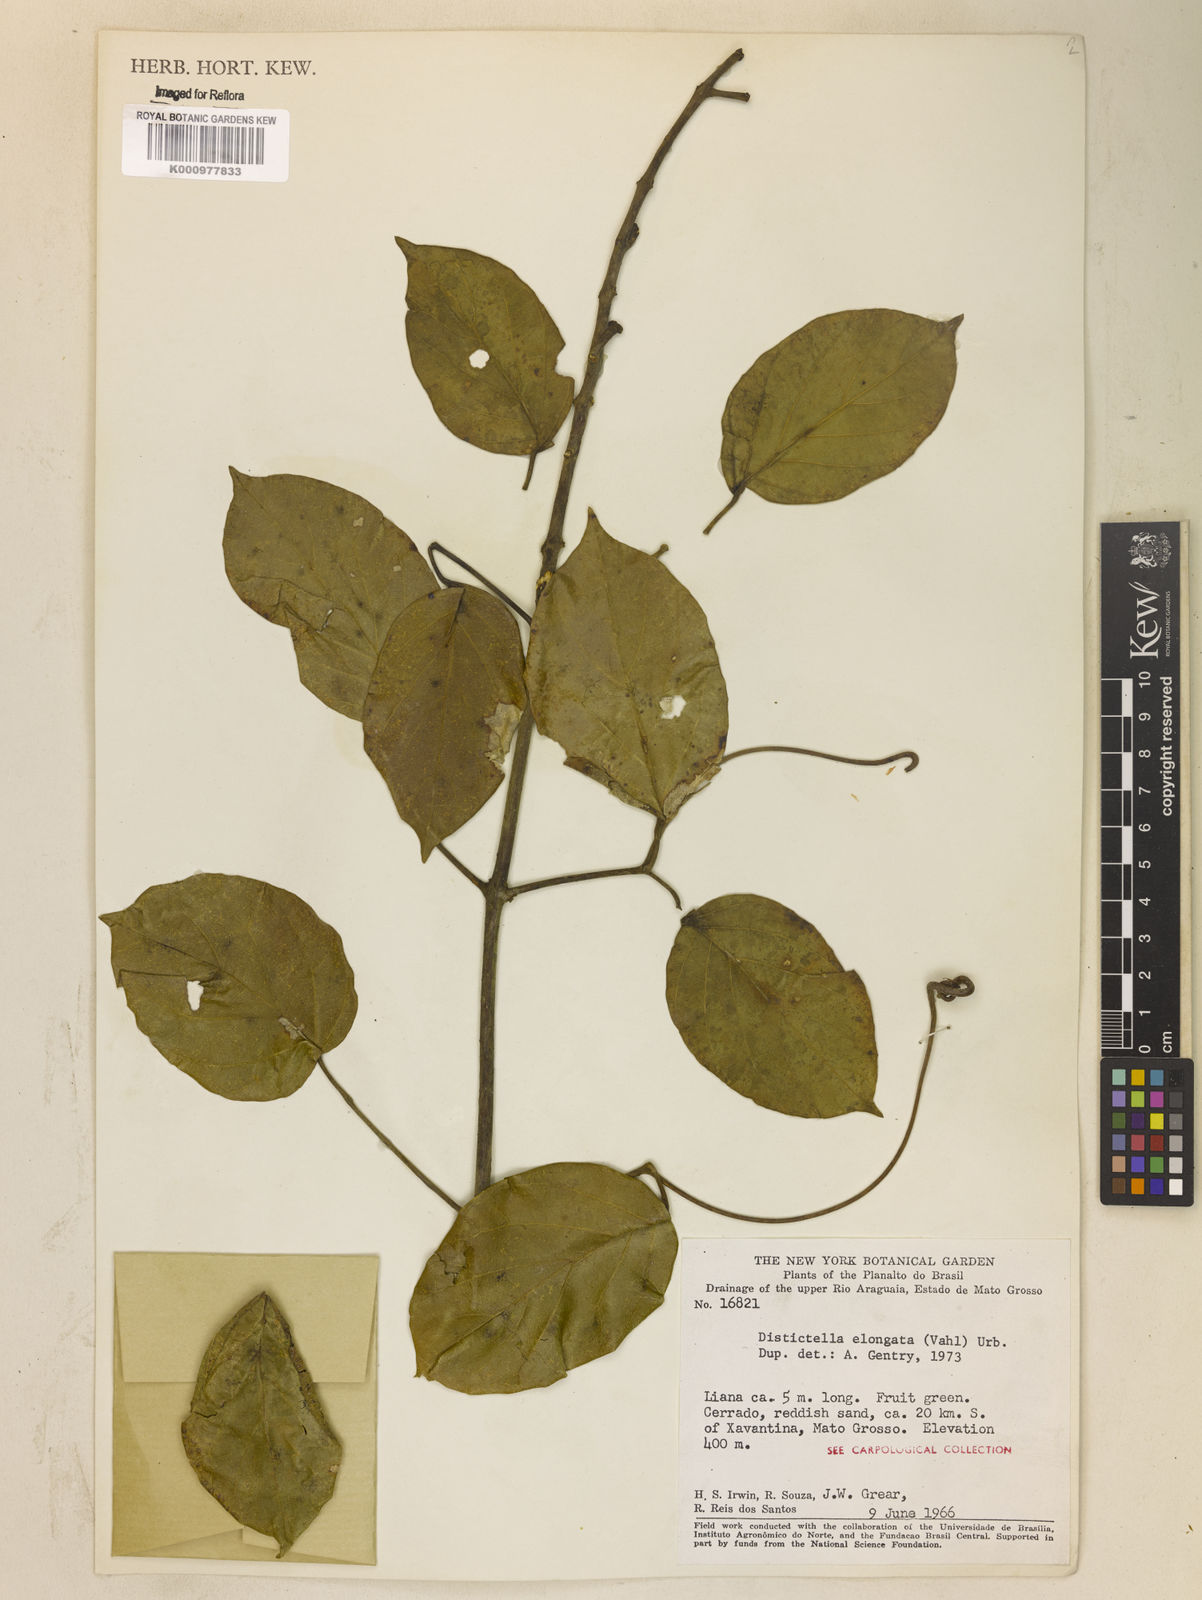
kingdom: Plantae
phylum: Tracheophyta
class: Magnoliopsida
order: Lamiales
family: Bignoniaceae
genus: Amphilophium
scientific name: Amphilophium elongatum
